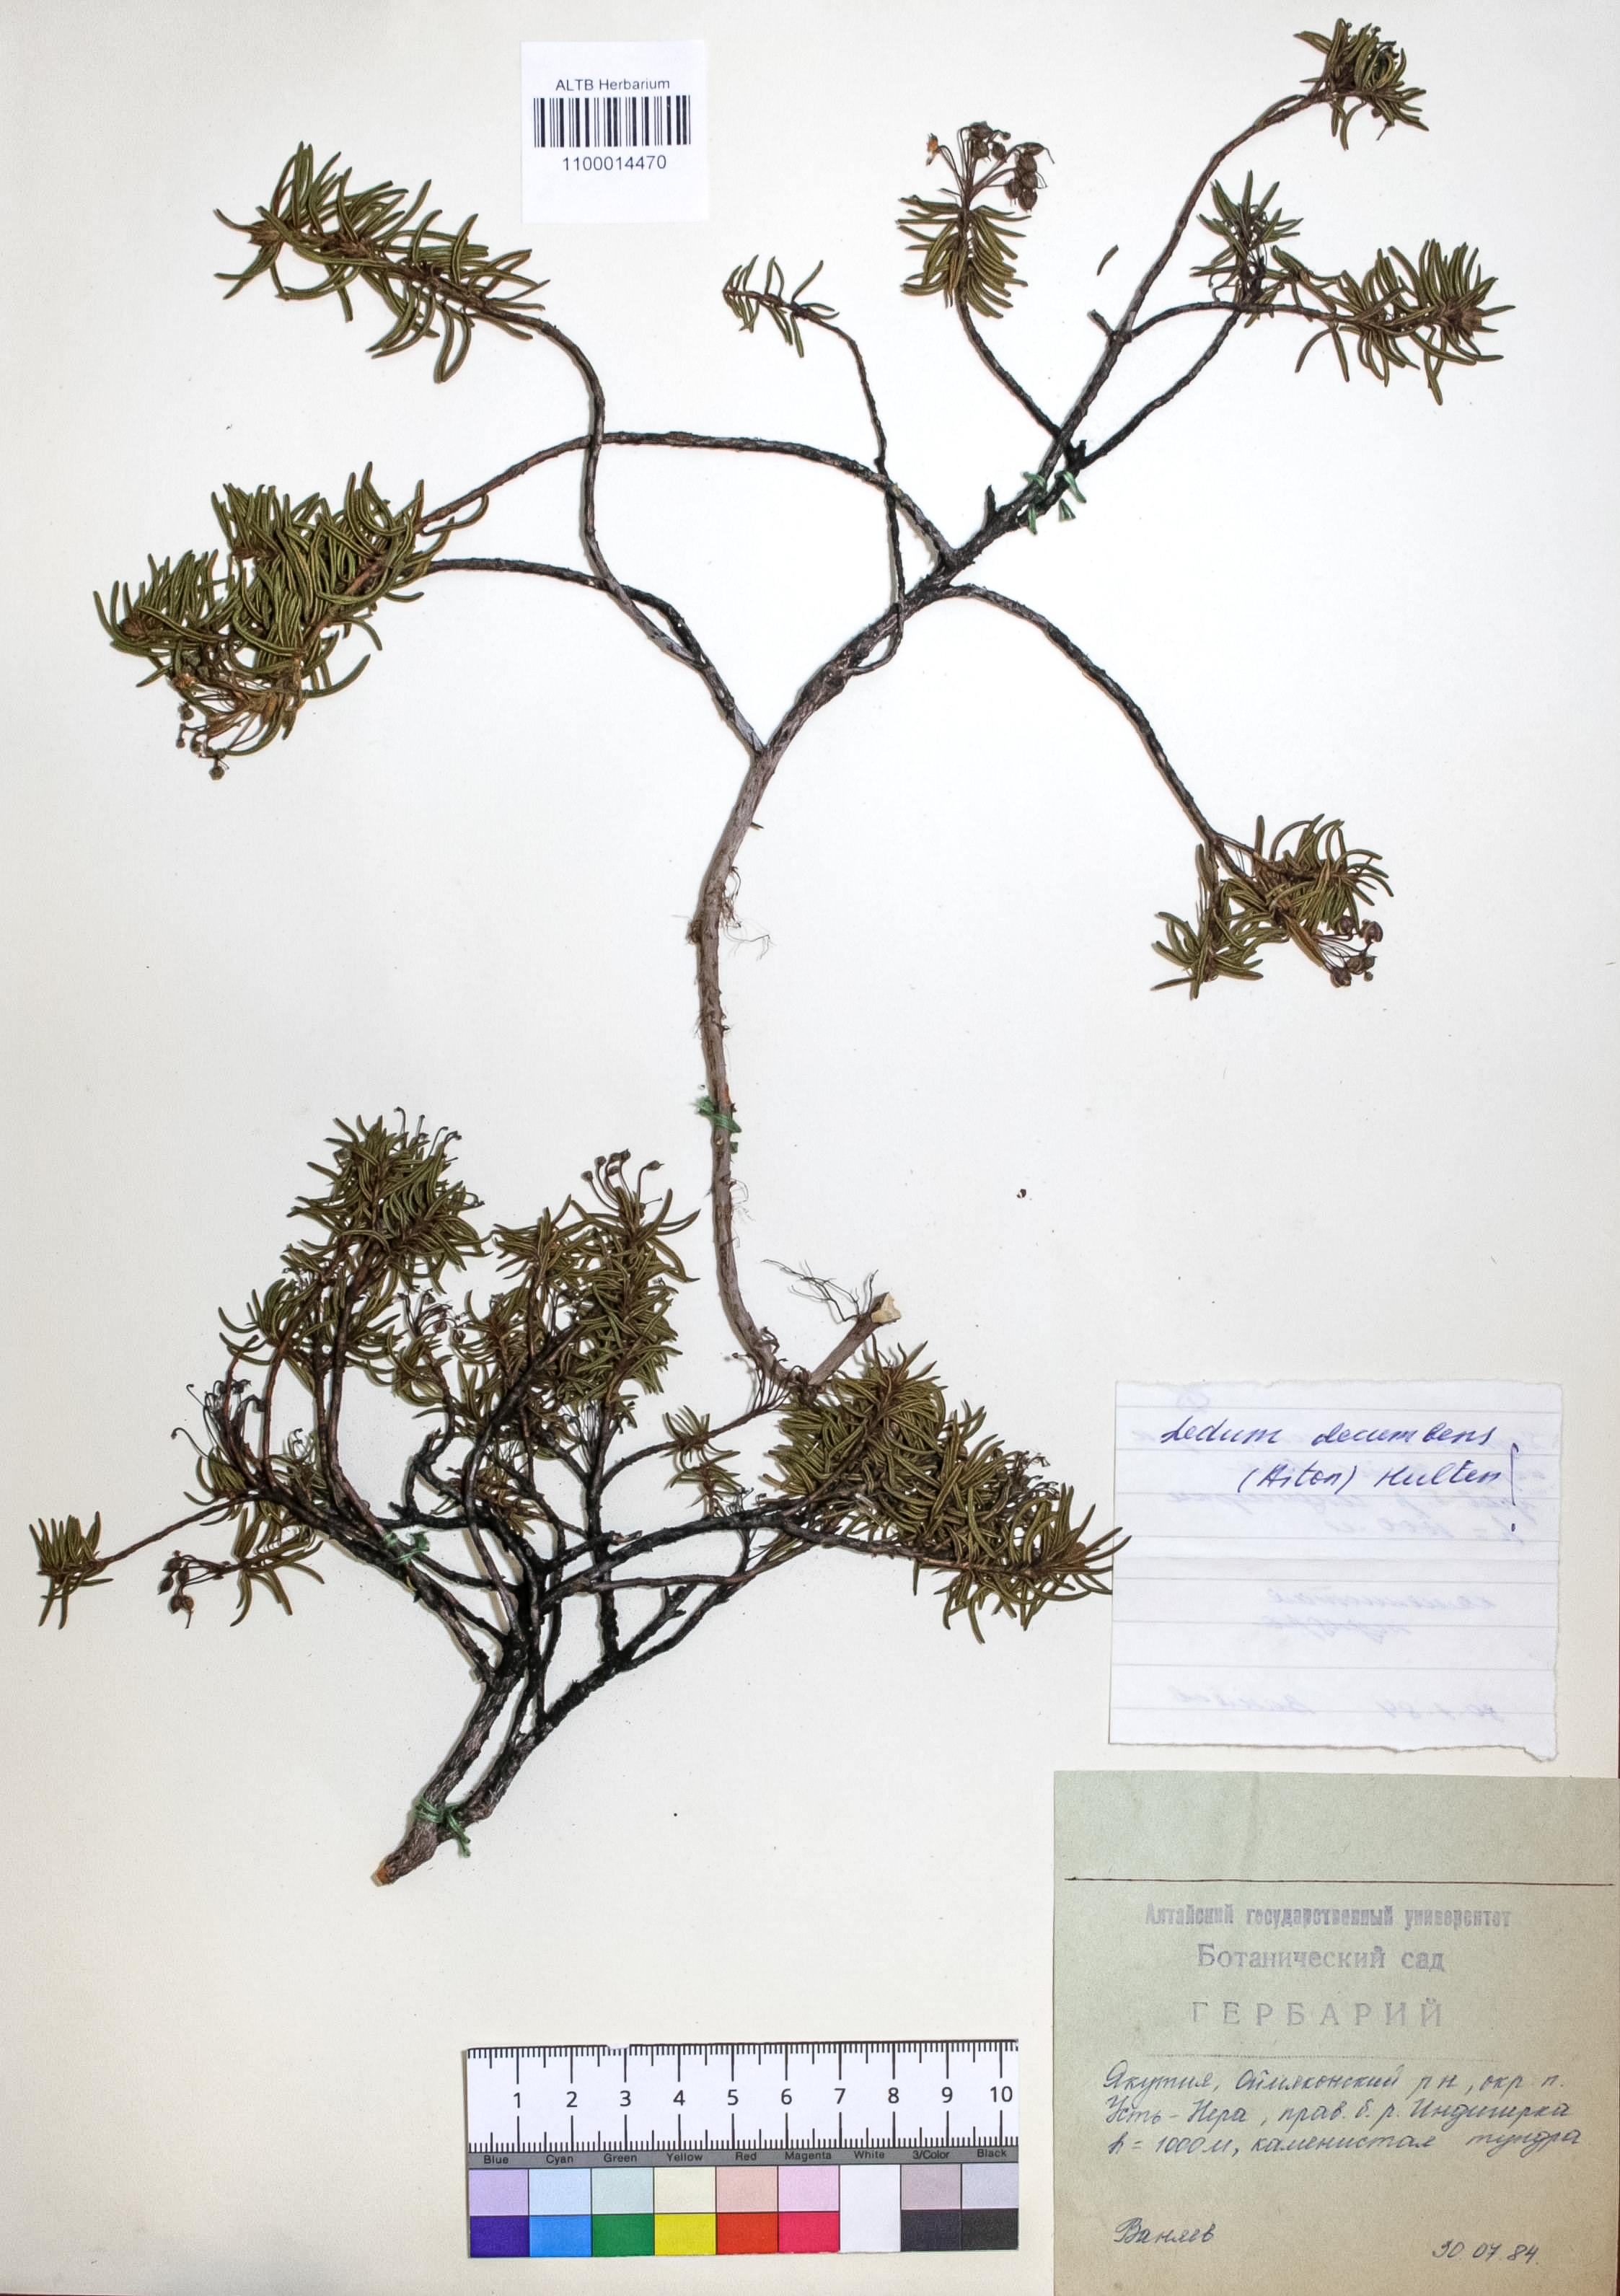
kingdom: Plantae
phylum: Tracheophyta
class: Magnoliopsida
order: Ericales
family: Ericaceae
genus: Rhododendron
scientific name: Rhododendron tomentosum
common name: Marsh labrador tea
